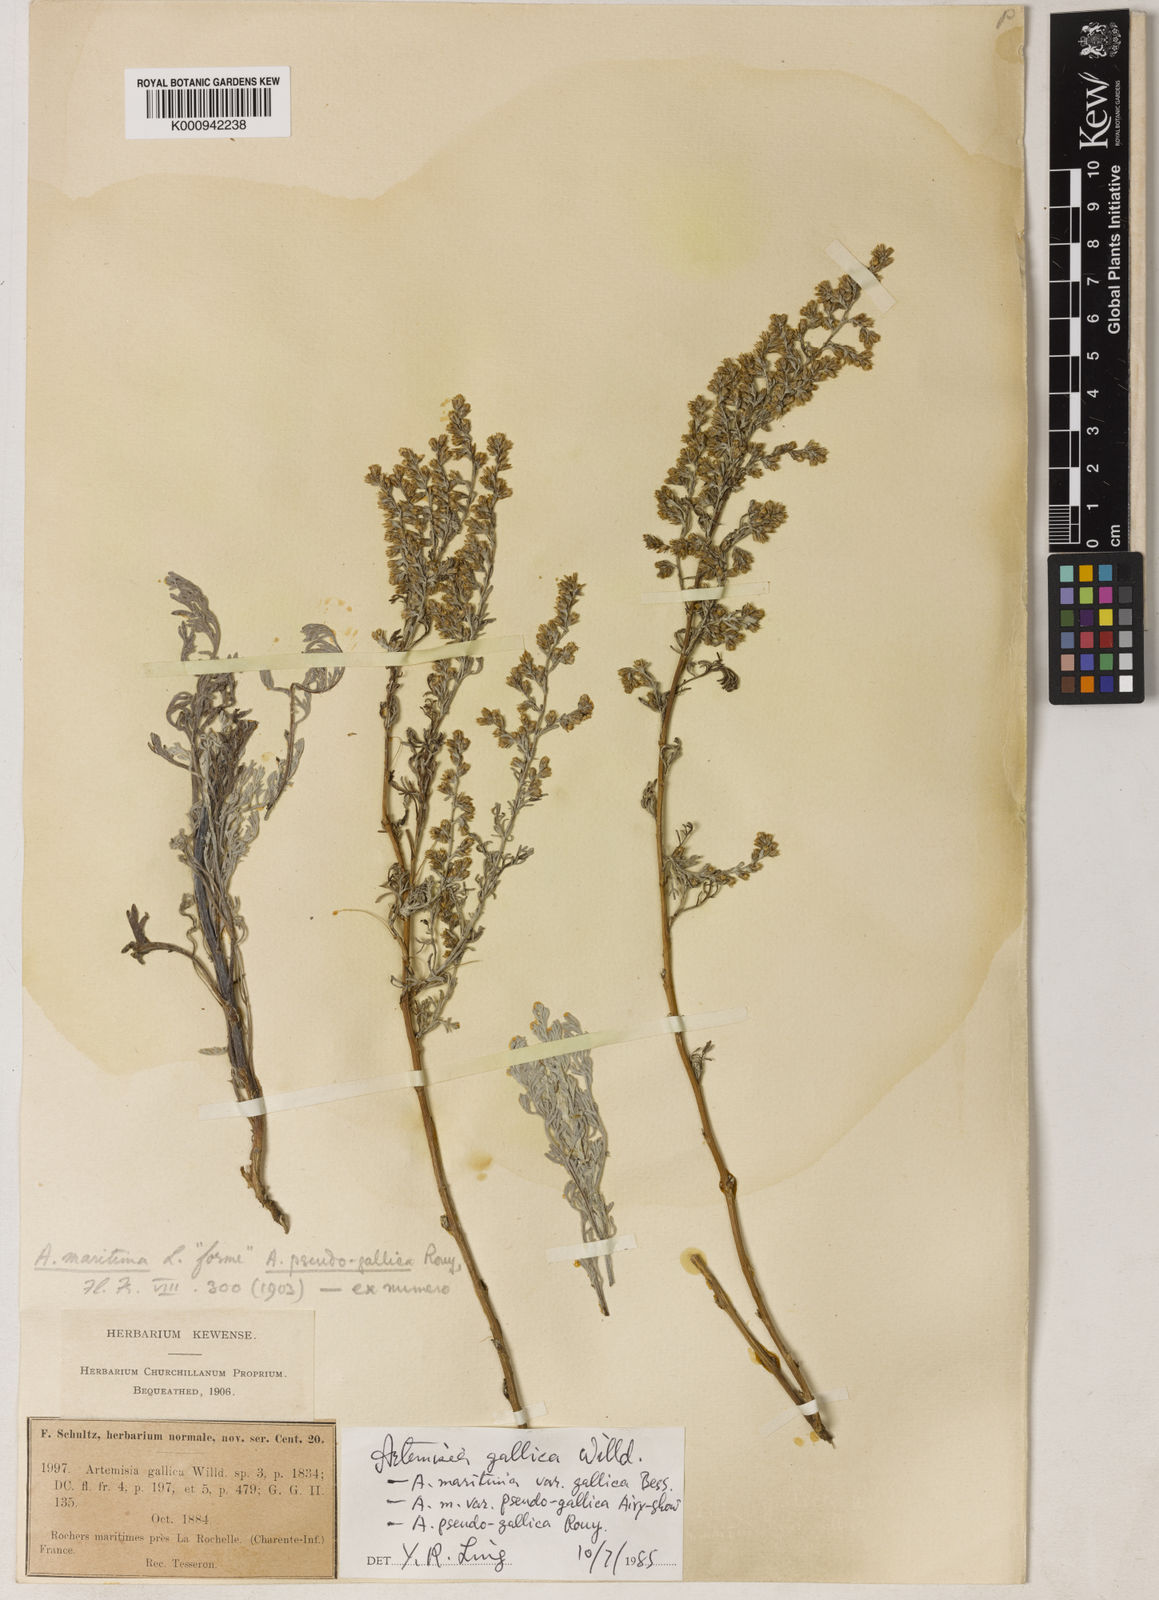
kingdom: Plantae
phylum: Tracheophyta
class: Magnoliopsida
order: Asterales
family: Asteraceae
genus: Seriphidium
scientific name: Seriphidium
